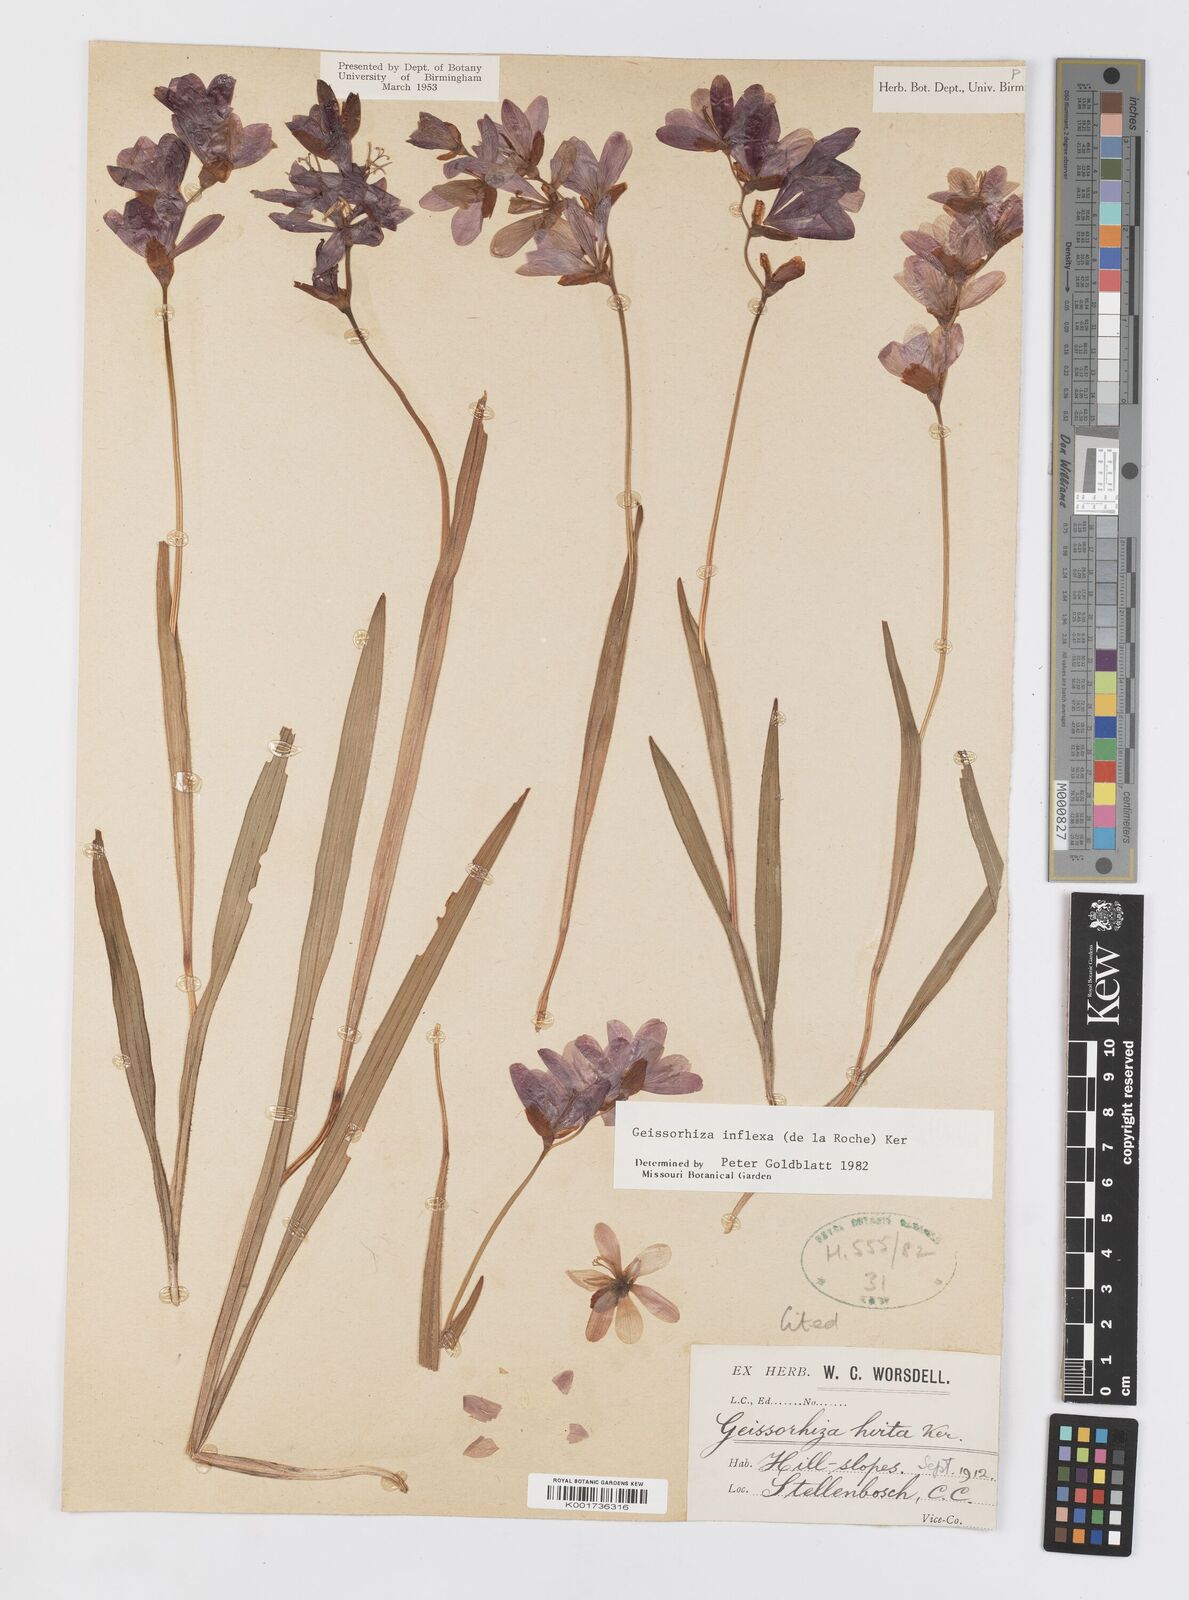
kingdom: Plantae
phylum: Tracheophyta
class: Liliopsida
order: Asparagales
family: Iridaceae
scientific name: Iridaceae
